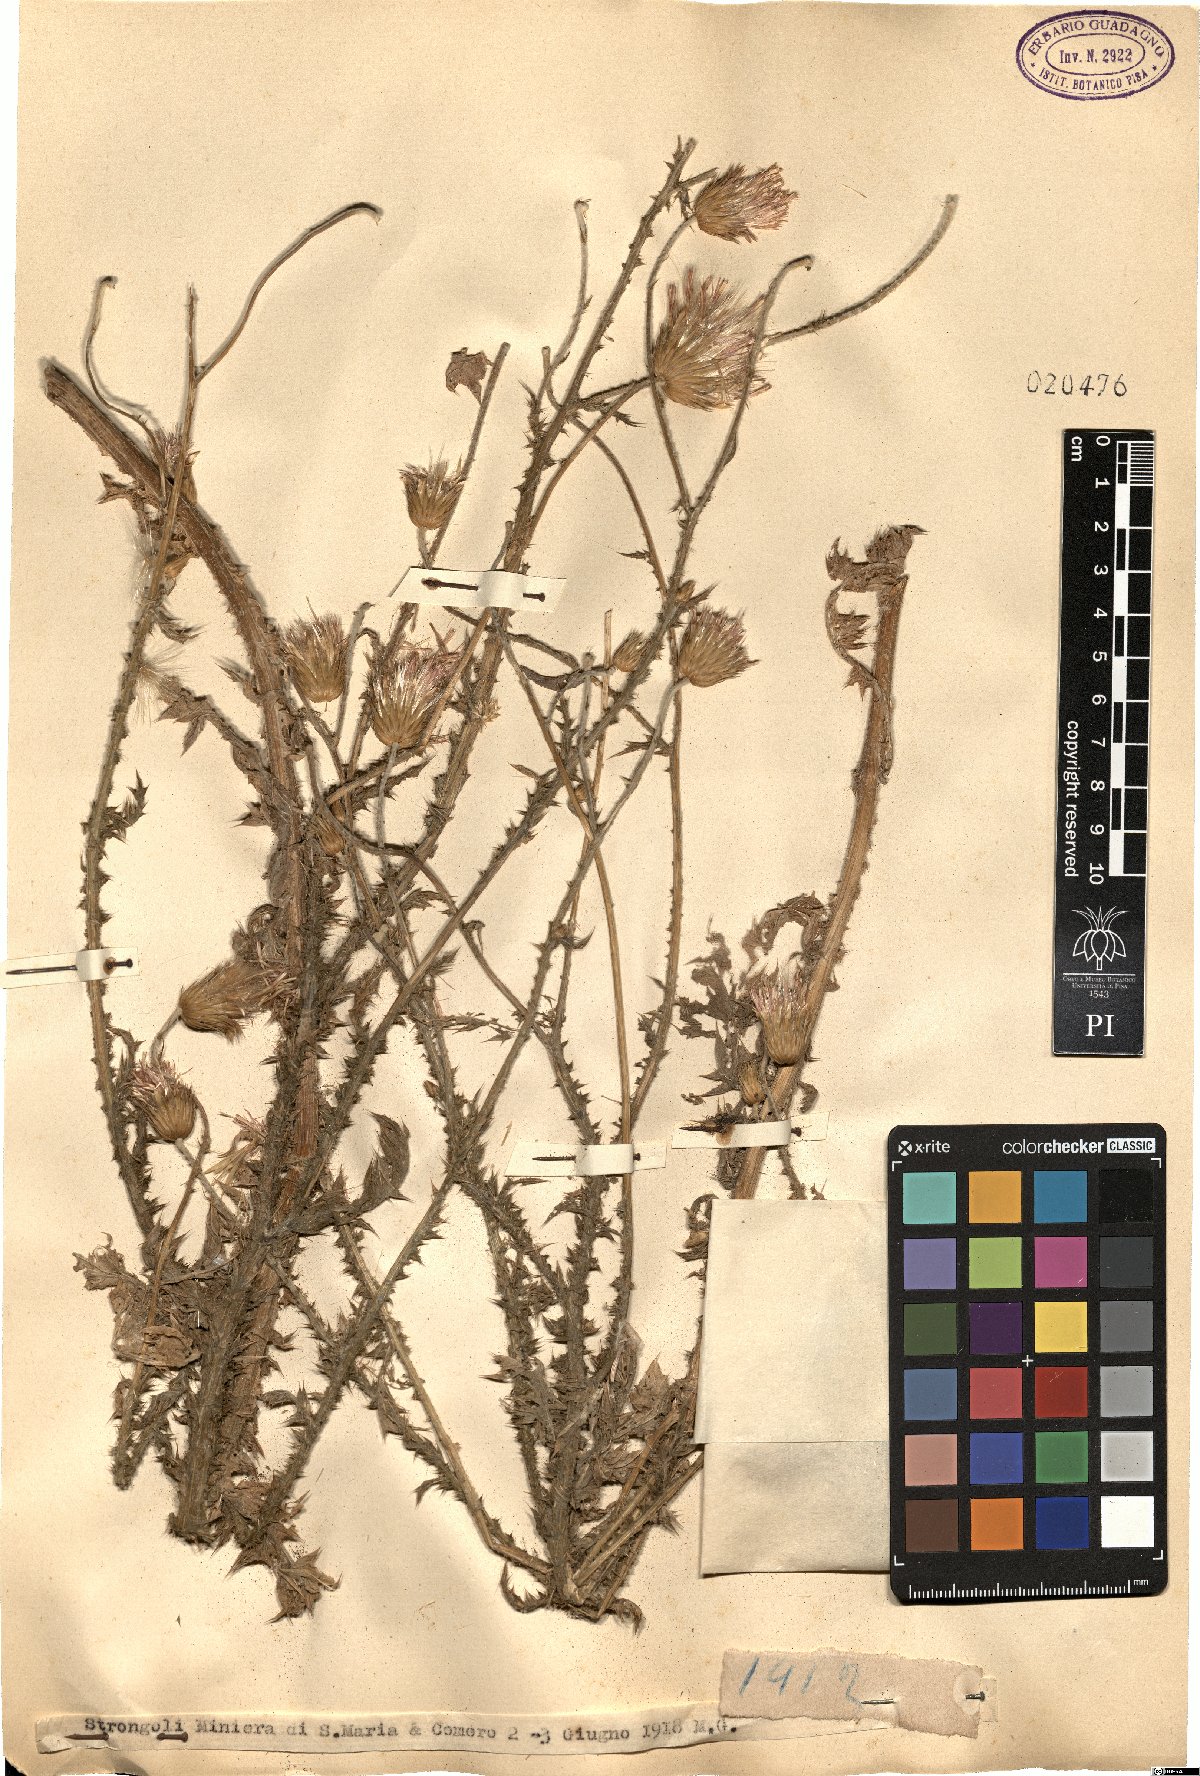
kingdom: Plantae
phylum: Tracheophyta
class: Magnoliopsida
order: Asterales
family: Asteraceae
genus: Carduus
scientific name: Carduus
